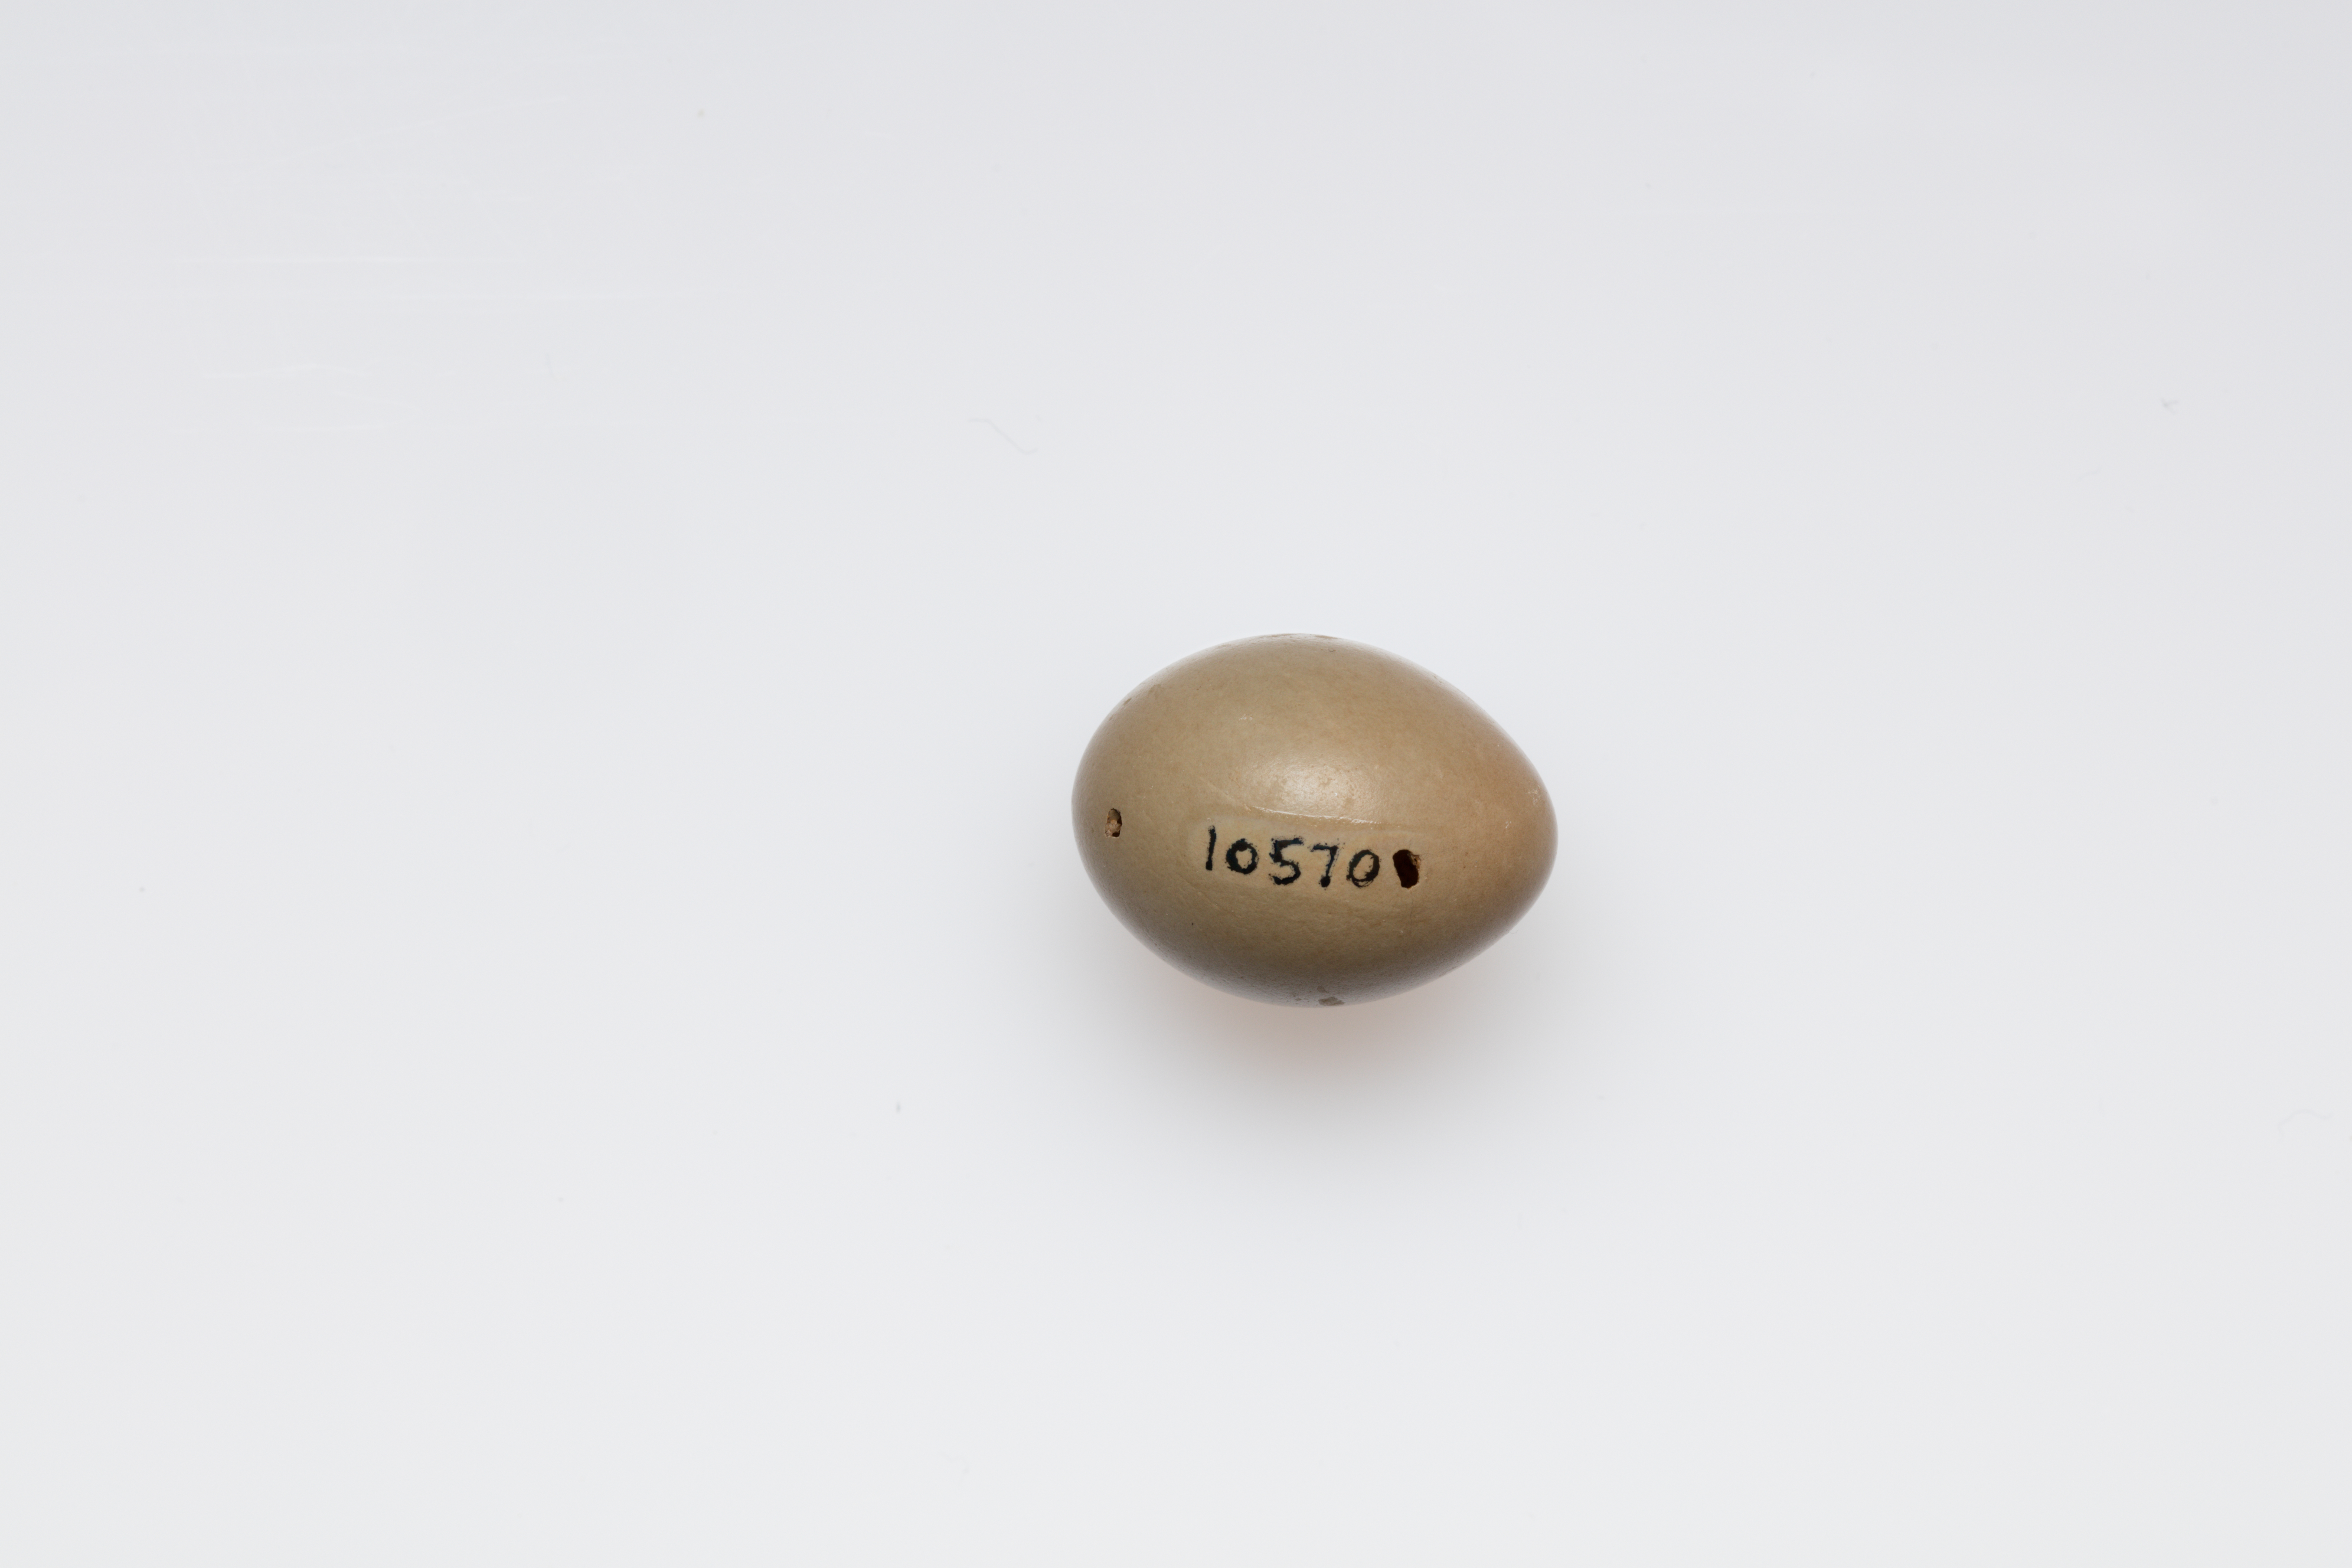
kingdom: Animalia
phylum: Chordata
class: Aves
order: Passeriformes
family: Muscicapidae
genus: Luscinia
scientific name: Luscinia megarhynchos
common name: Common nightingale
